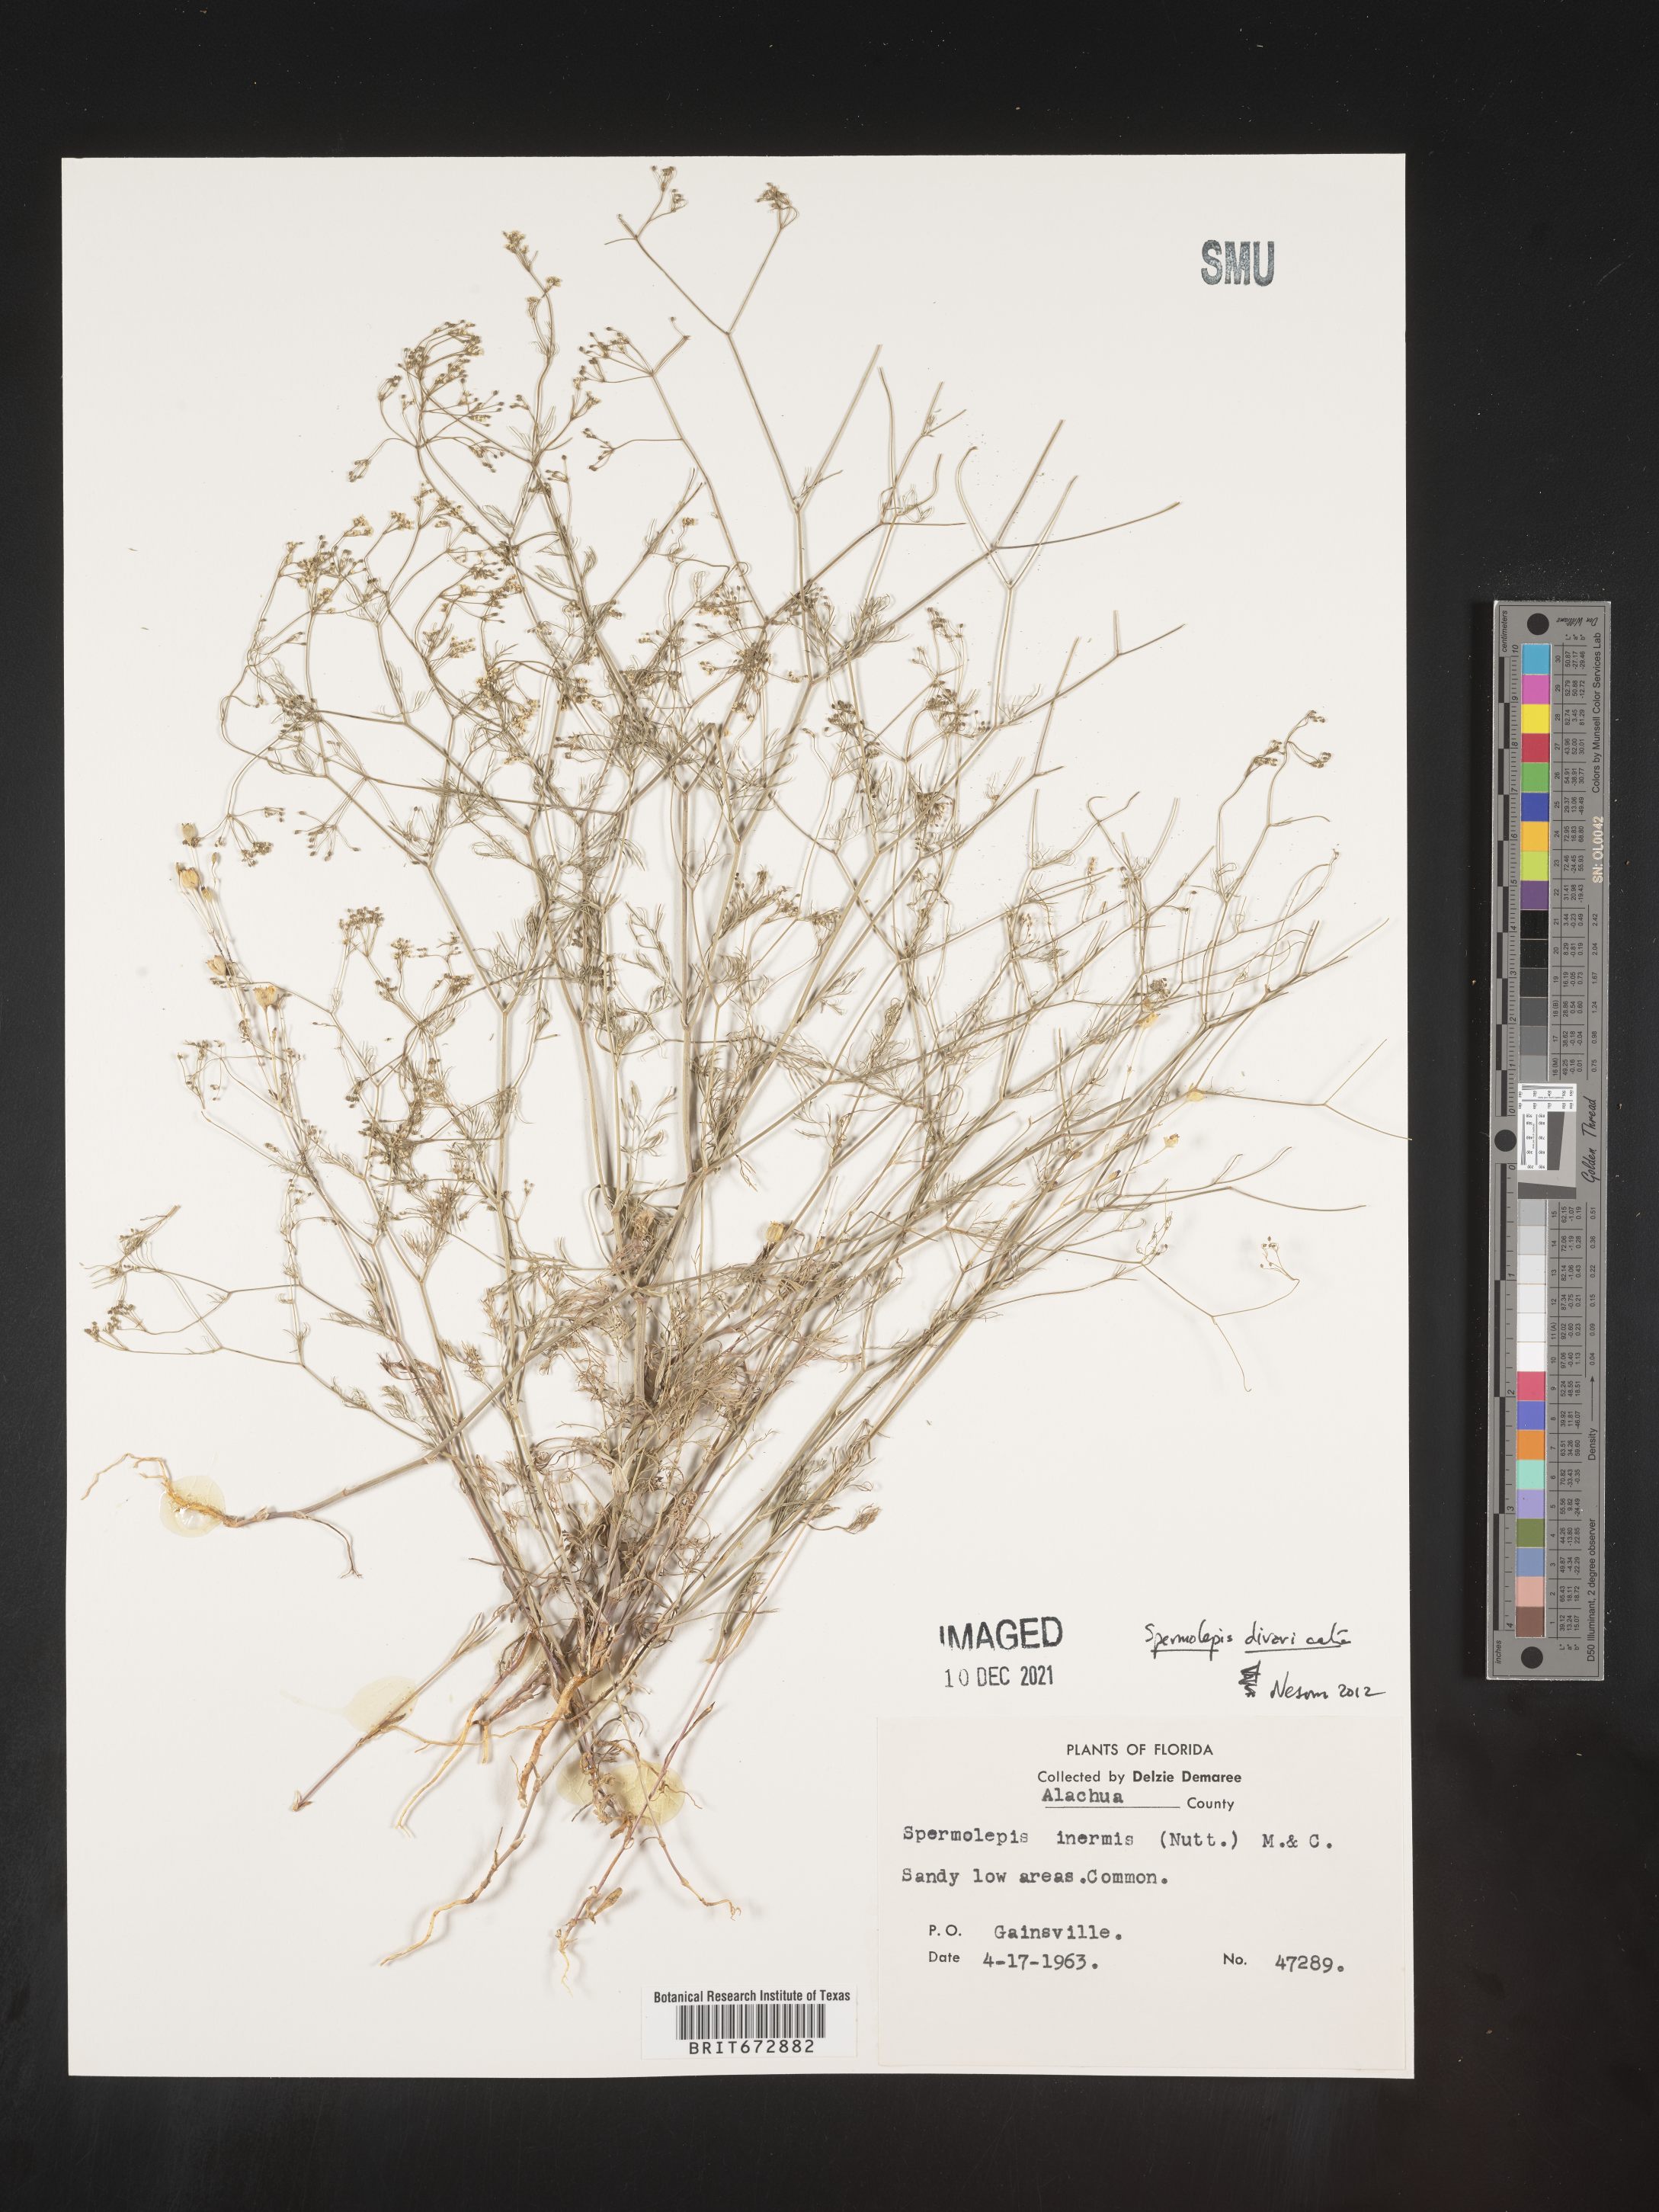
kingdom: Plantae
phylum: Tracheophyta
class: Magnoliopsida
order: Apiales
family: Apiaceae
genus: Spermolepis
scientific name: Spermolepis divaricata
